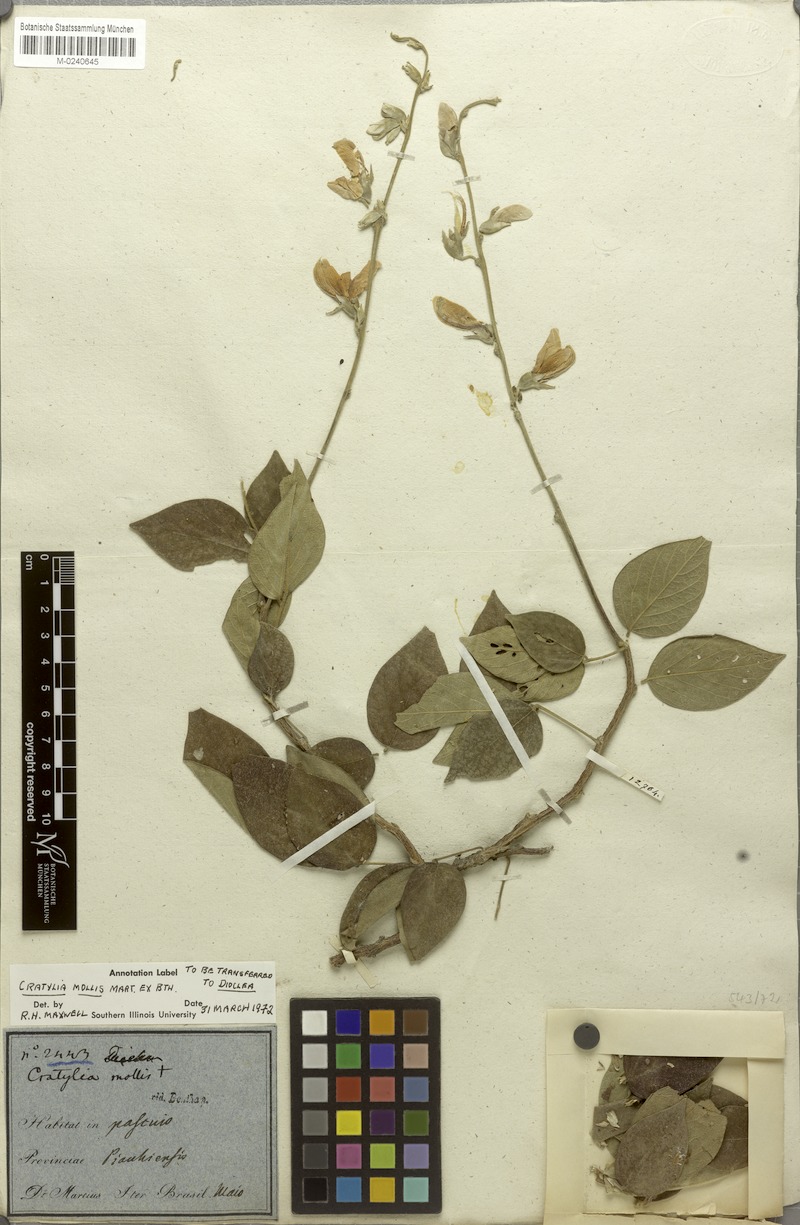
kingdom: Plantae
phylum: Tracheophyta
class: Magnoliopsida
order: Fabales
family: Fabaceae
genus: Cratylia
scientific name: Cratylia mollis
